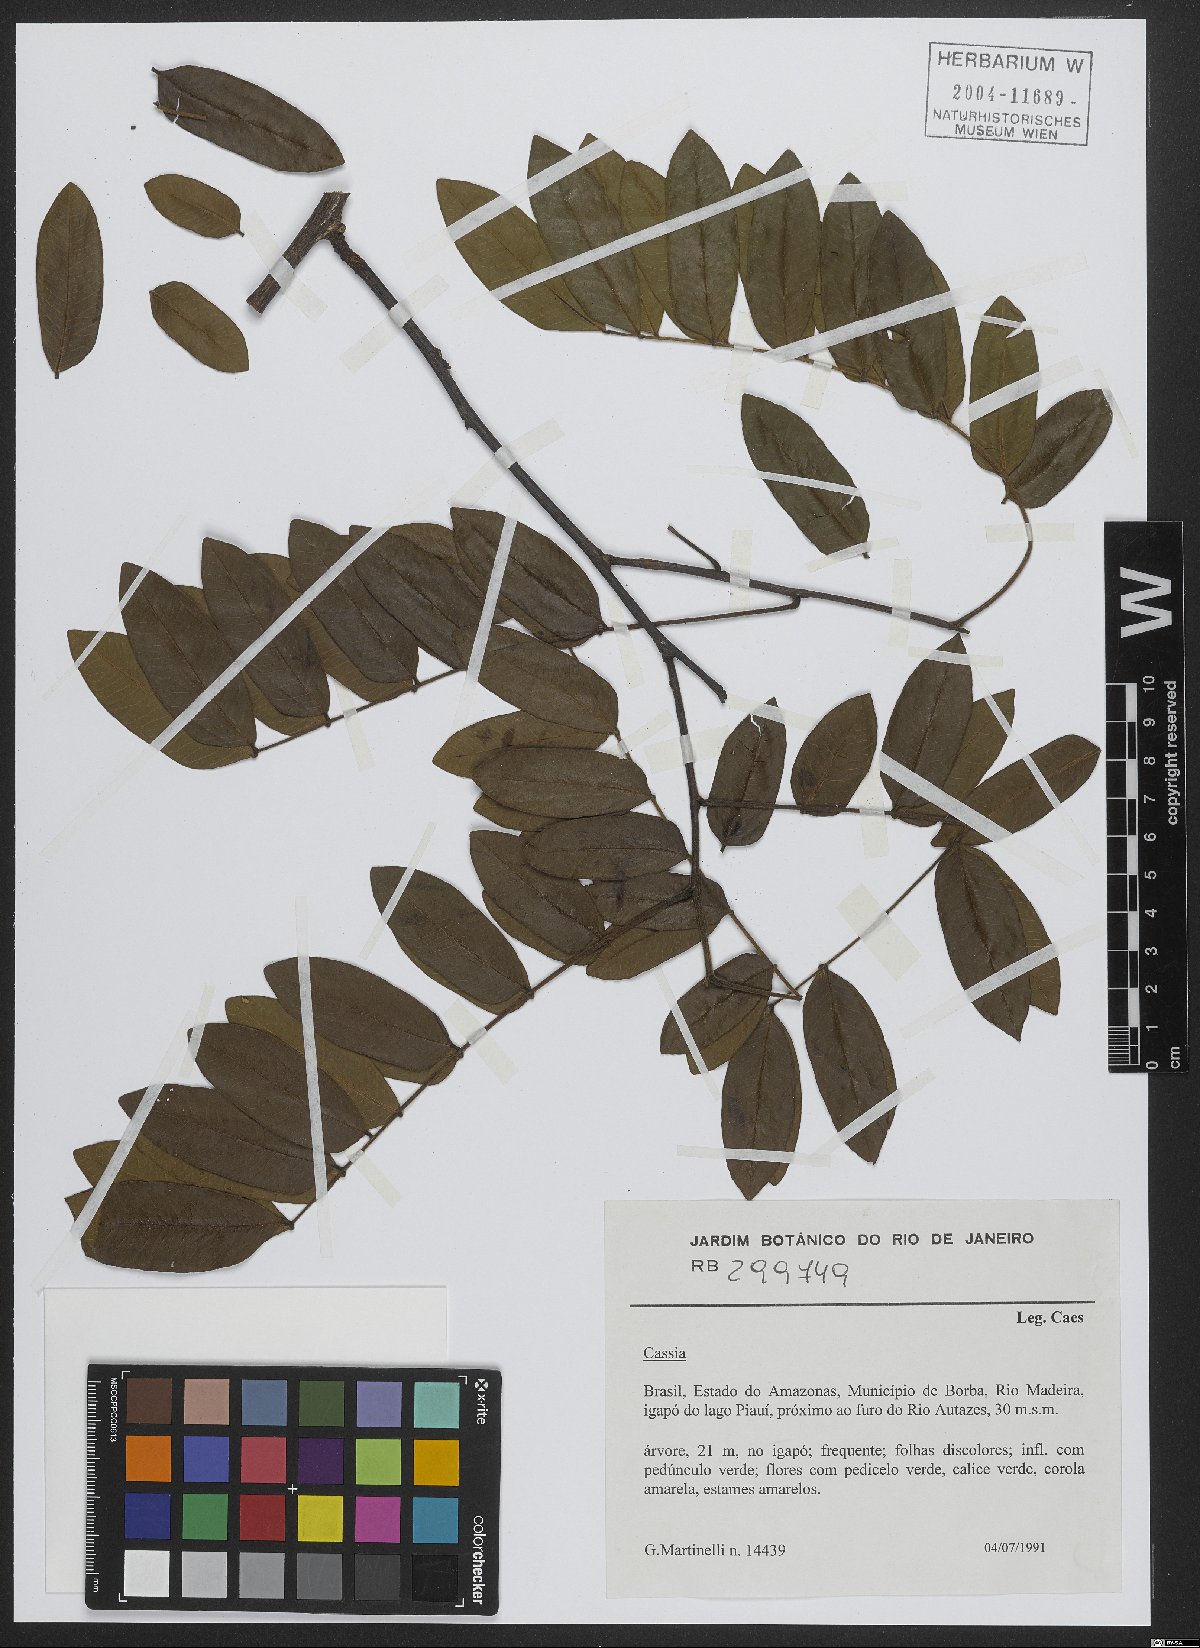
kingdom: Plantae
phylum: Tracheophyta
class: Magnoliopsida
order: Fabales
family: Fabaceae
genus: Cassia
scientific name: Cassia
